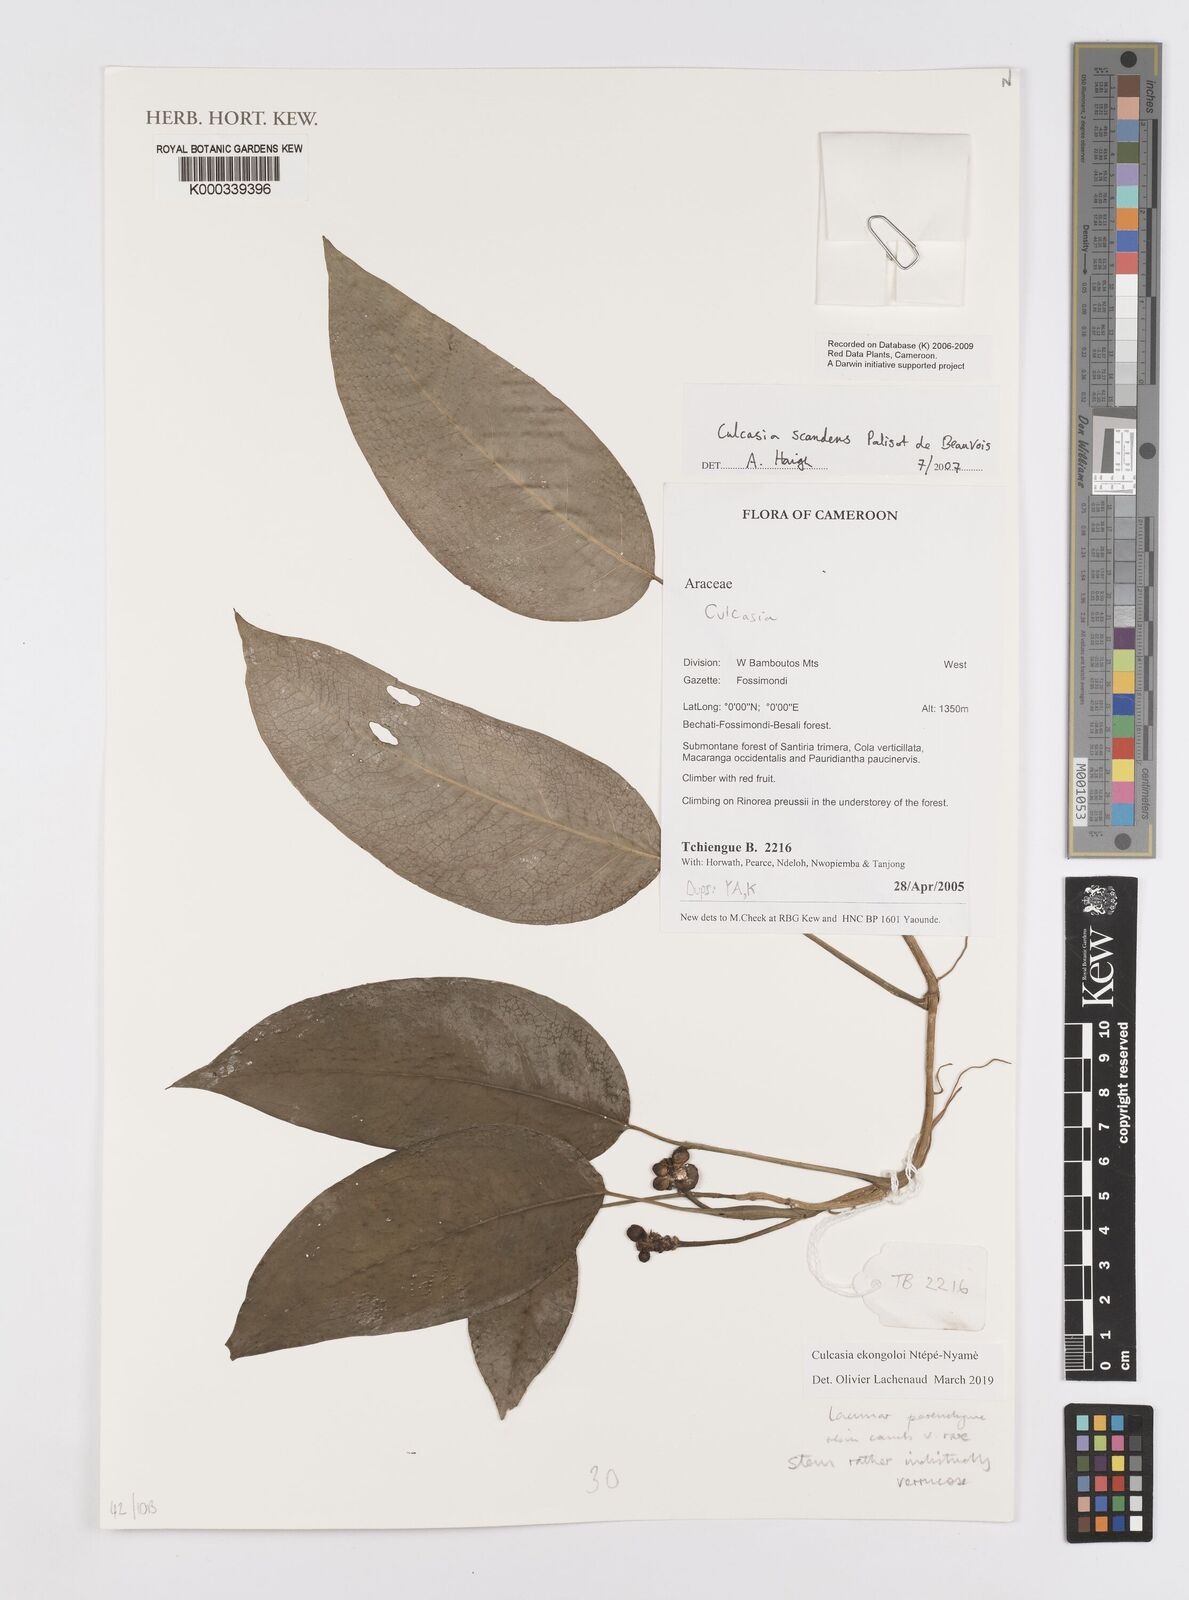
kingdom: Plantae
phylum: Tracheophyta
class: Liliopsida
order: Alismatales
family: Araceae
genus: Culcasia
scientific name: Culcasia
